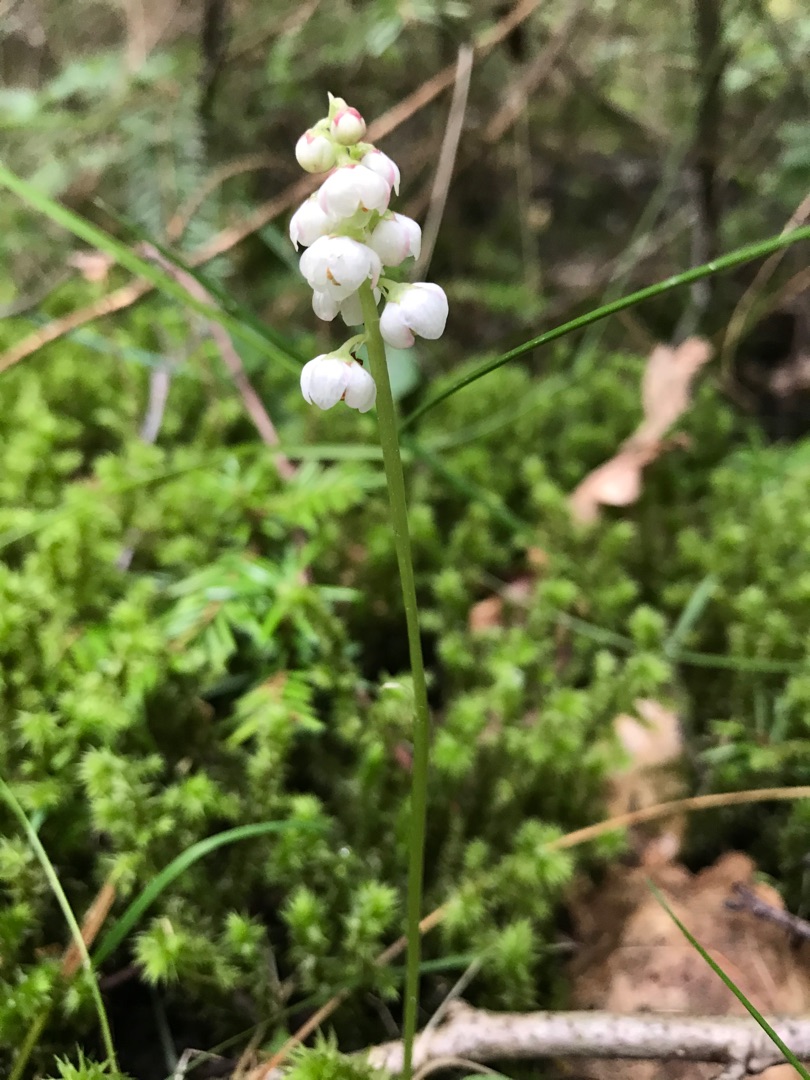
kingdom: Plantae
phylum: Tracheophyta
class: Magnoliopsida
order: Ericales
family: Ericaceae
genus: Pyrola
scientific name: Pyrola minor
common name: Liden vintergrøn
